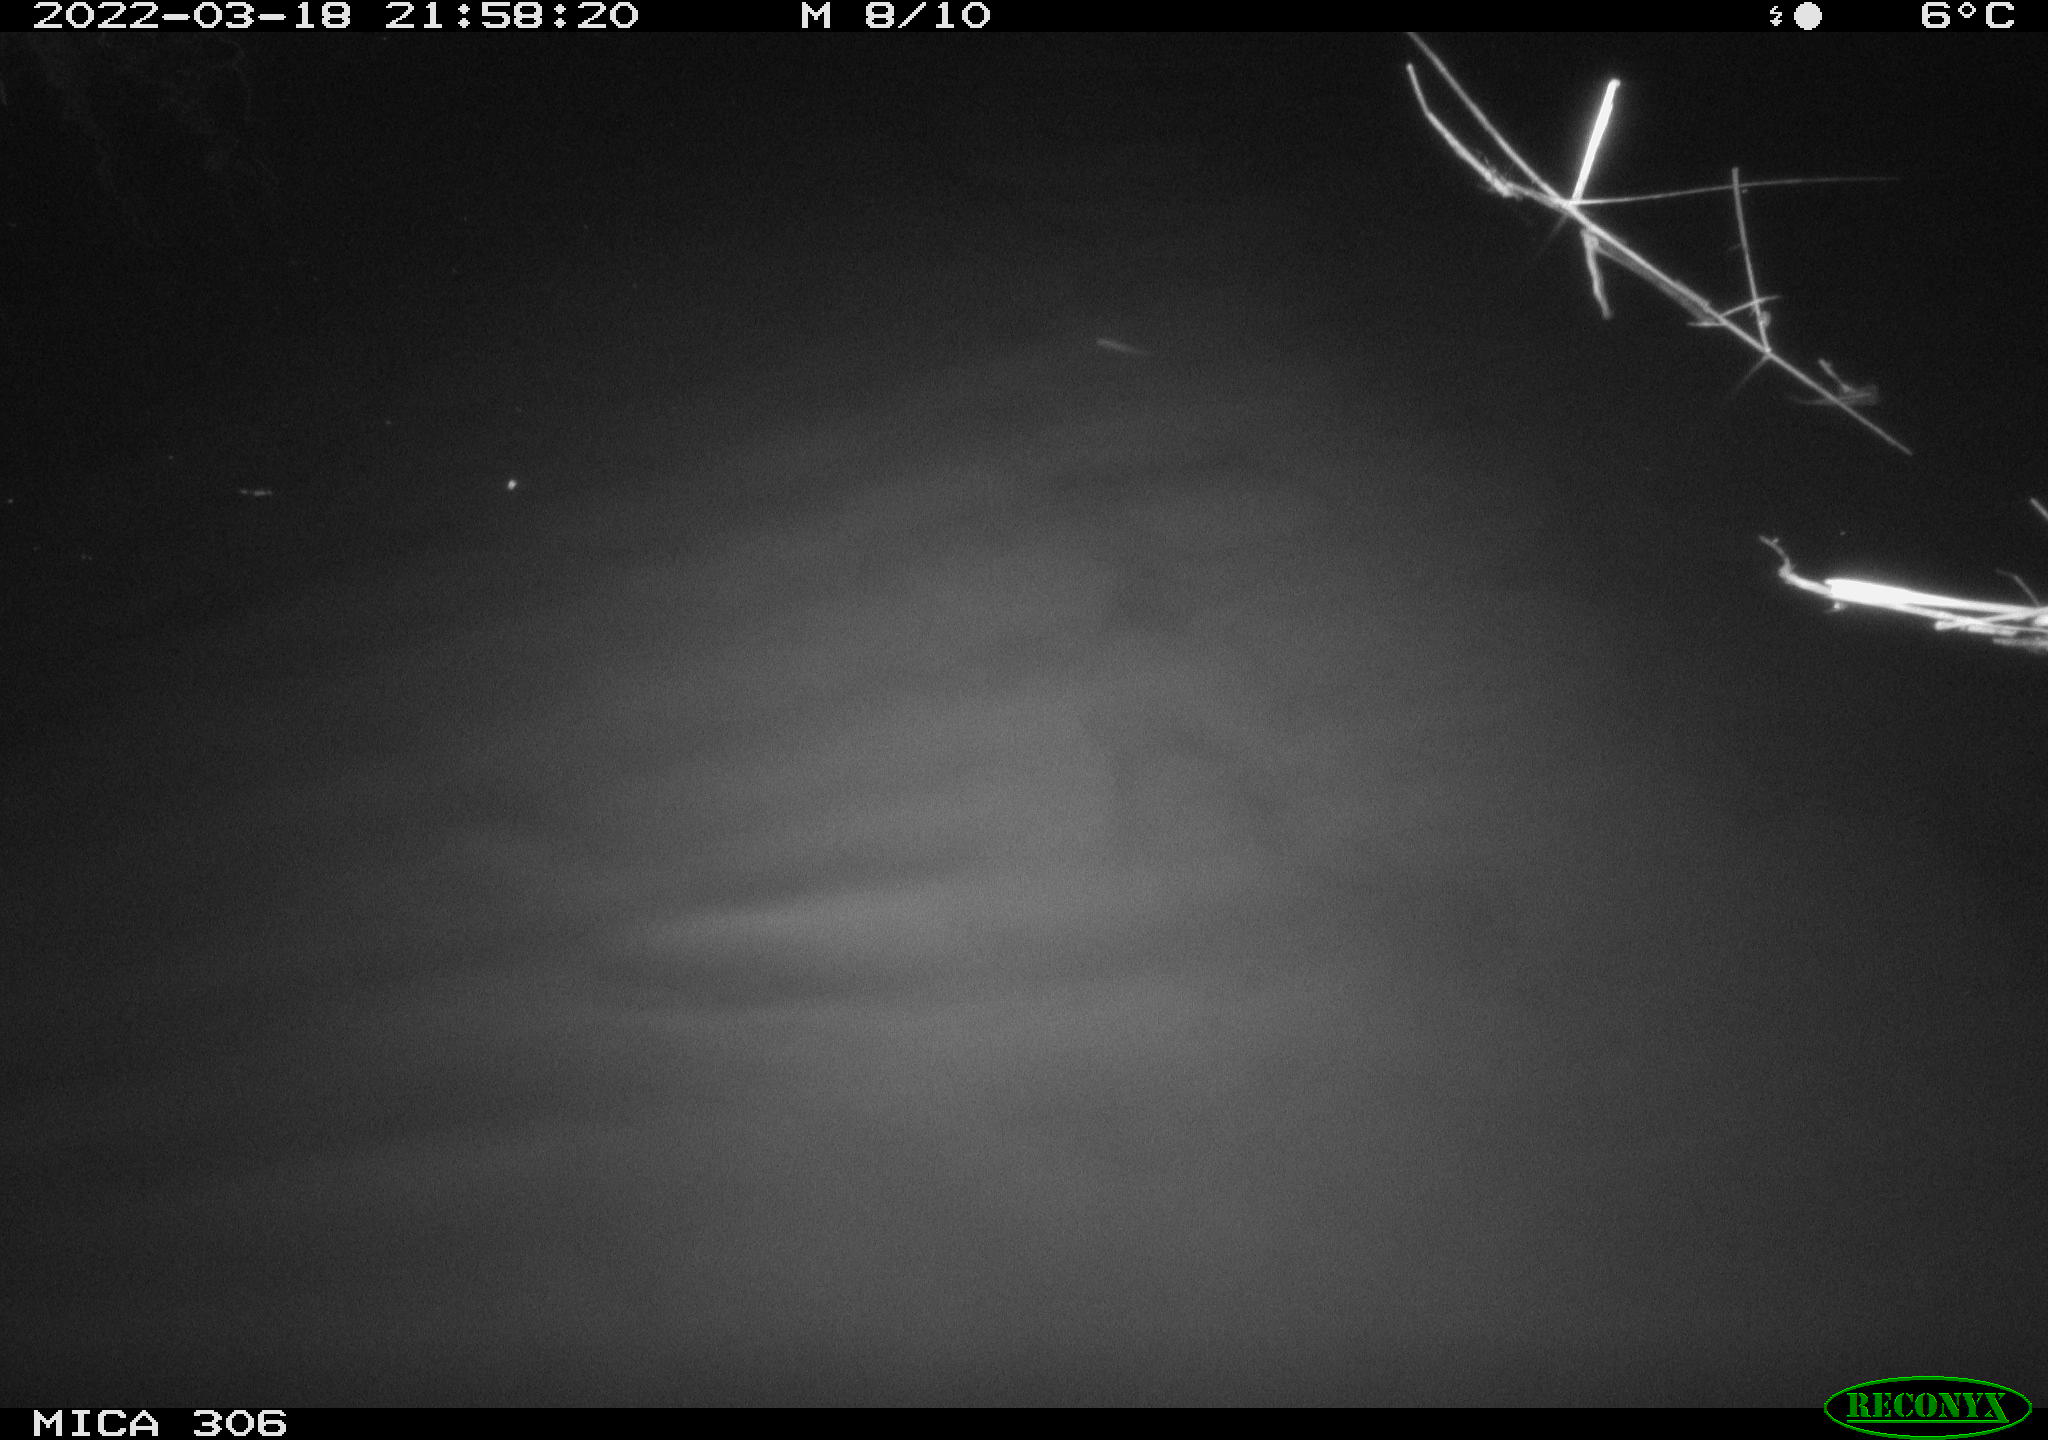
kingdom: Animalia
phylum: Chordata
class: Mammalia
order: Rodentia
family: Cricetidae
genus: Ondatra
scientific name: Ondatra zibethicus
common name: Muskrat
